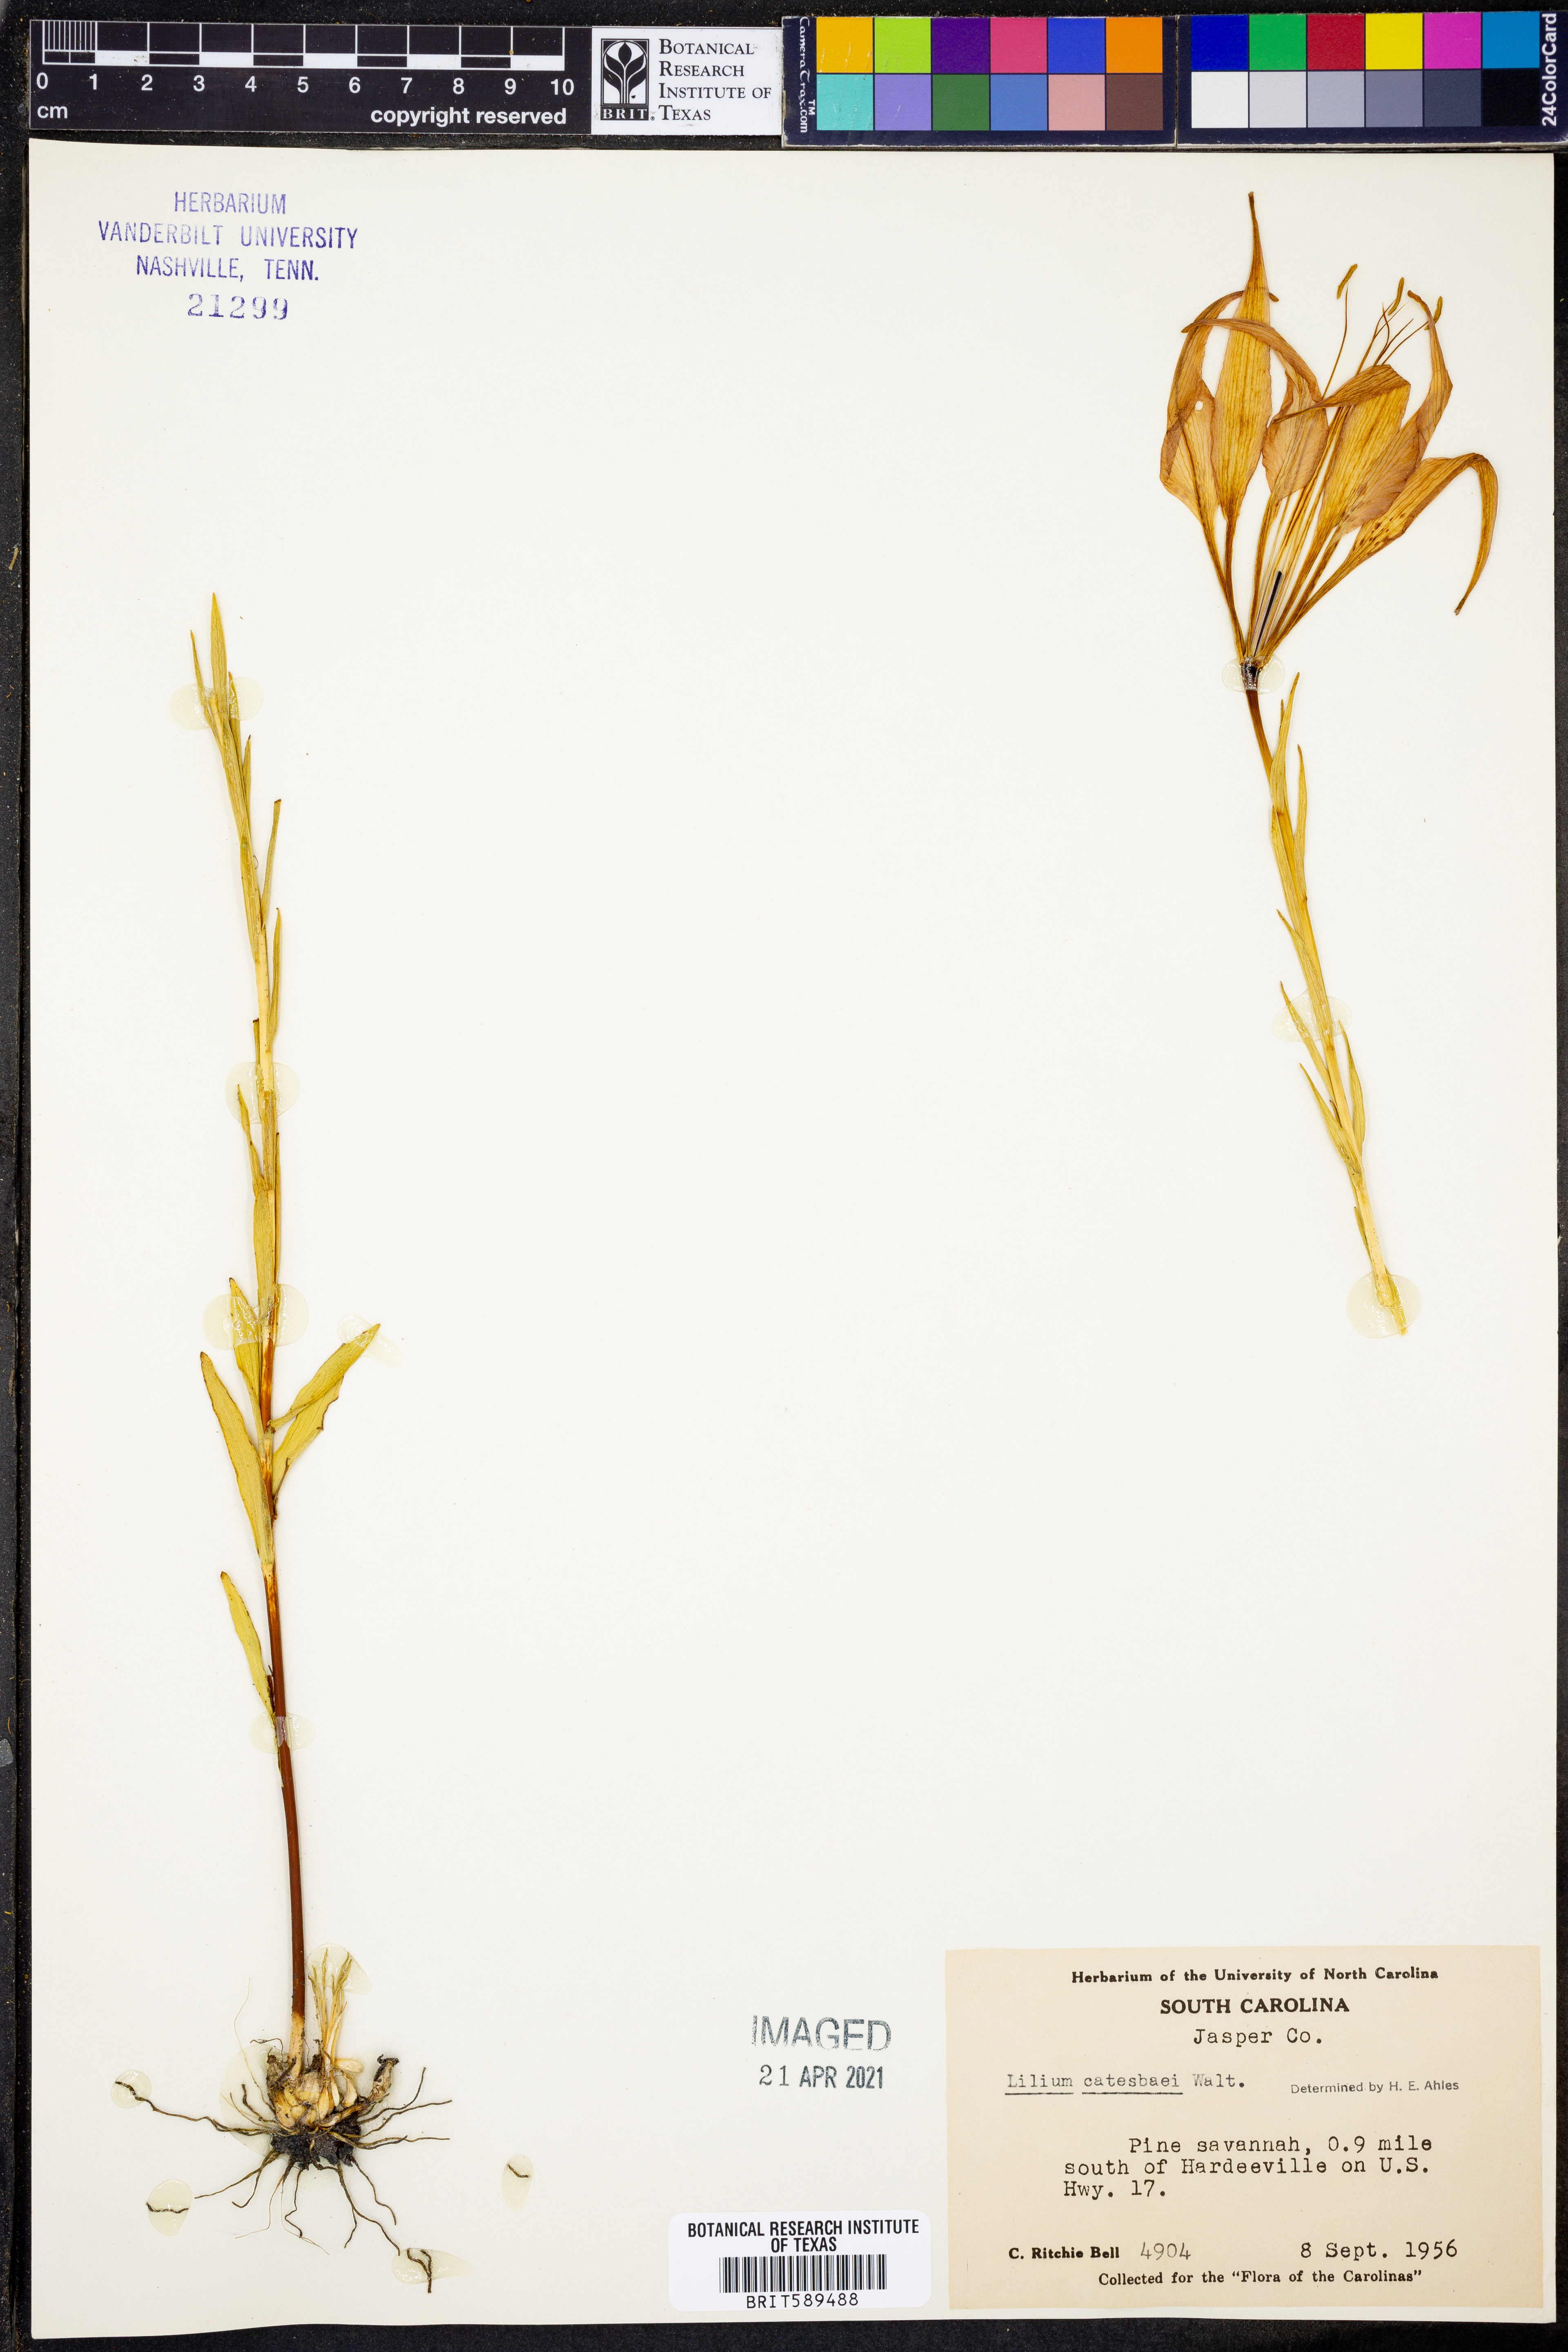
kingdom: Plantae
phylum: Tracheophyta
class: Liliopsida
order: Liliales
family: Liliaceae
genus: Lilium
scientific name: Lilium catesbaei
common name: Catesby's lily
